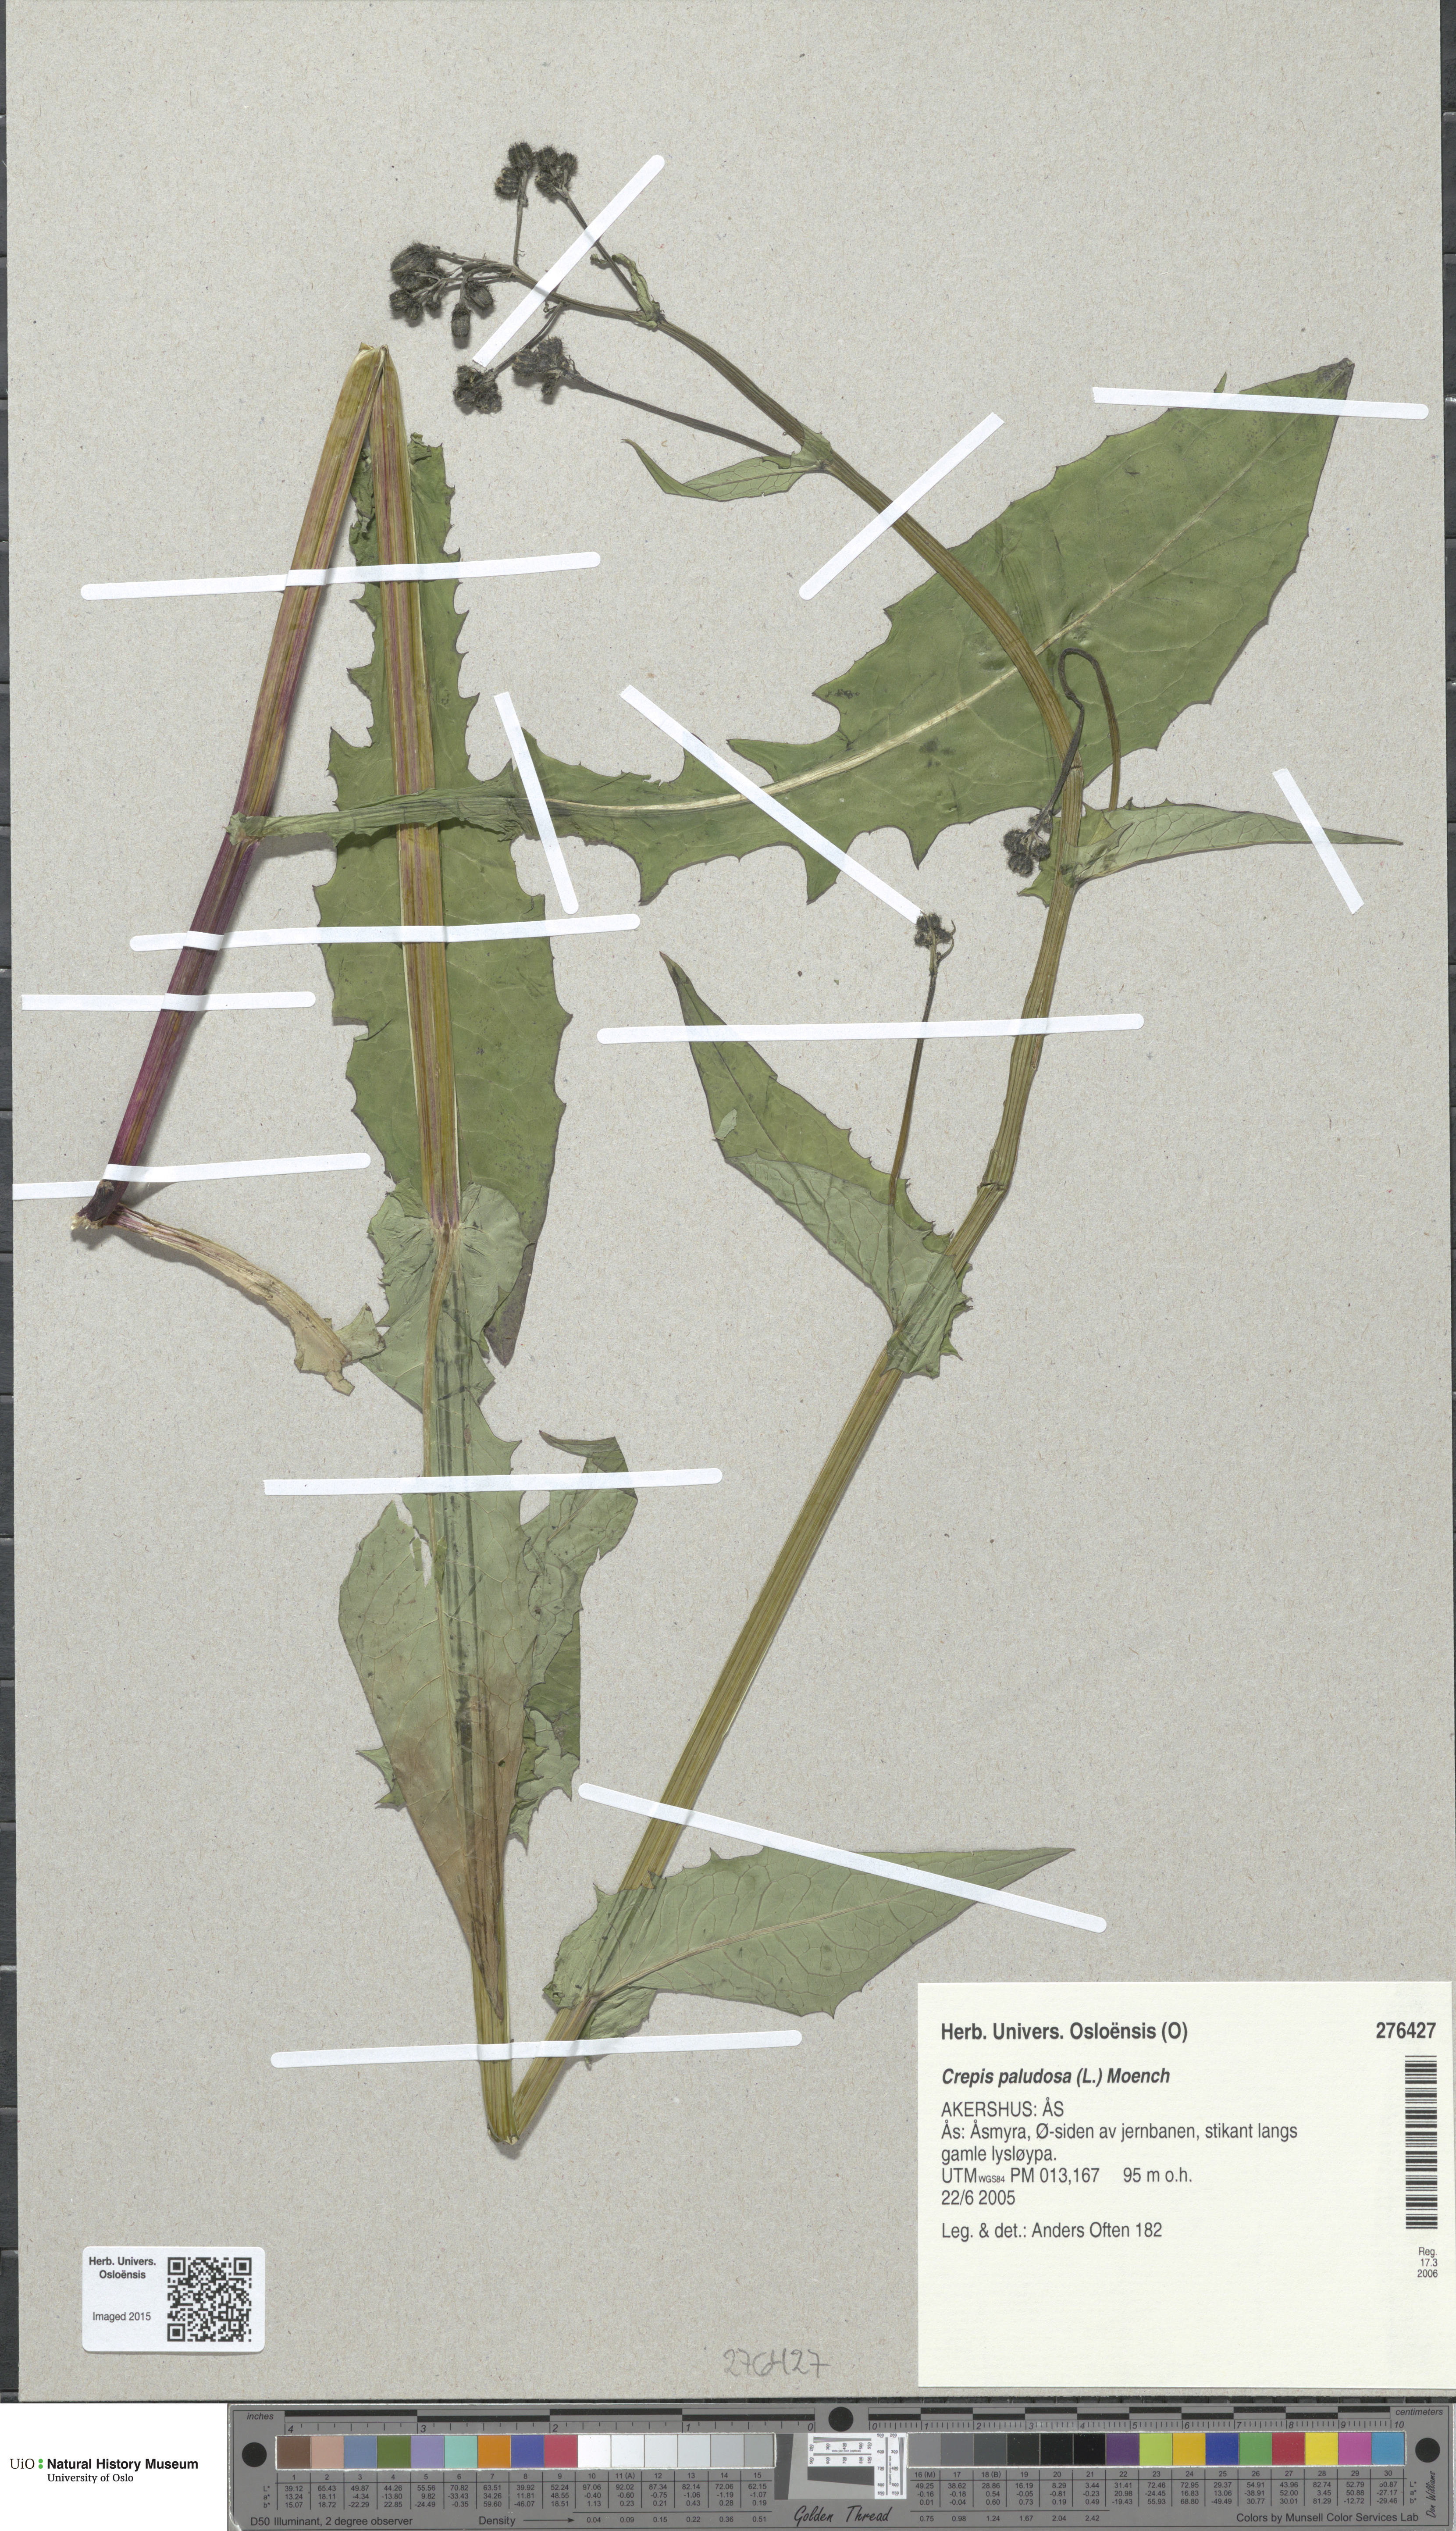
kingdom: Plantae
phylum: Tracheophyta
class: Magnoliopsida
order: Asterales
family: Asteraceae
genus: Crepis
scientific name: Crepis paludosa
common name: Marsh hawk's-beard
